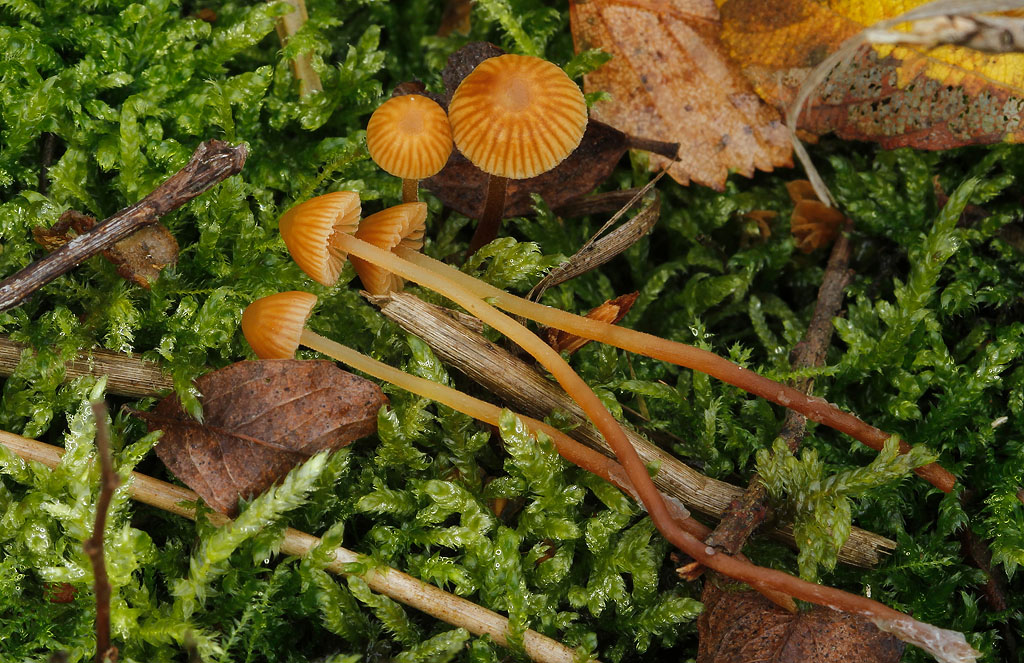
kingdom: Fungi
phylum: Basidiomycota
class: Agaricomycetes
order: Agaricales
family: Hymenogastraceae
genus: Galerina
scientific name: Galerina vittiformis
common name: Hairy leg bell
